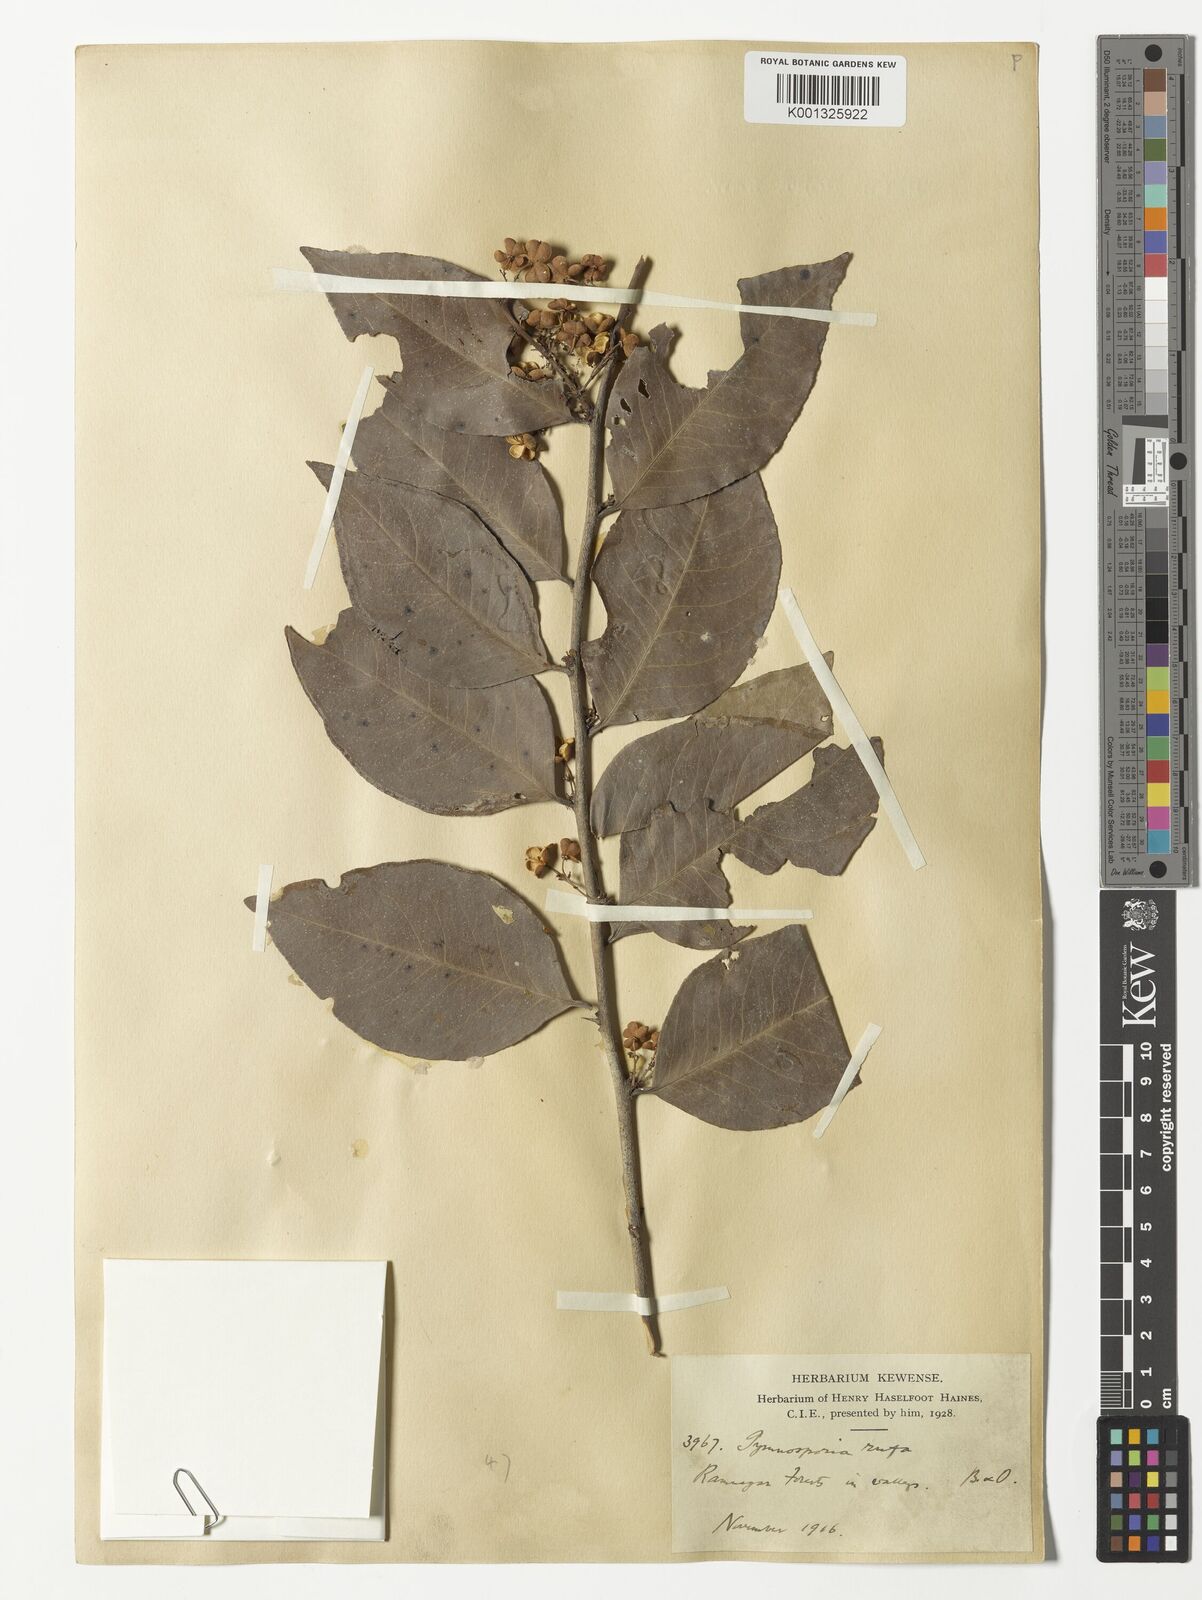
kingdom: Plantae
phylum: Tracheophyta
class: Magnoliopsida
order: Celastrales
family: Celastraceae
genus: Gymnosporia
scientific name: Gymnosporia rufa
